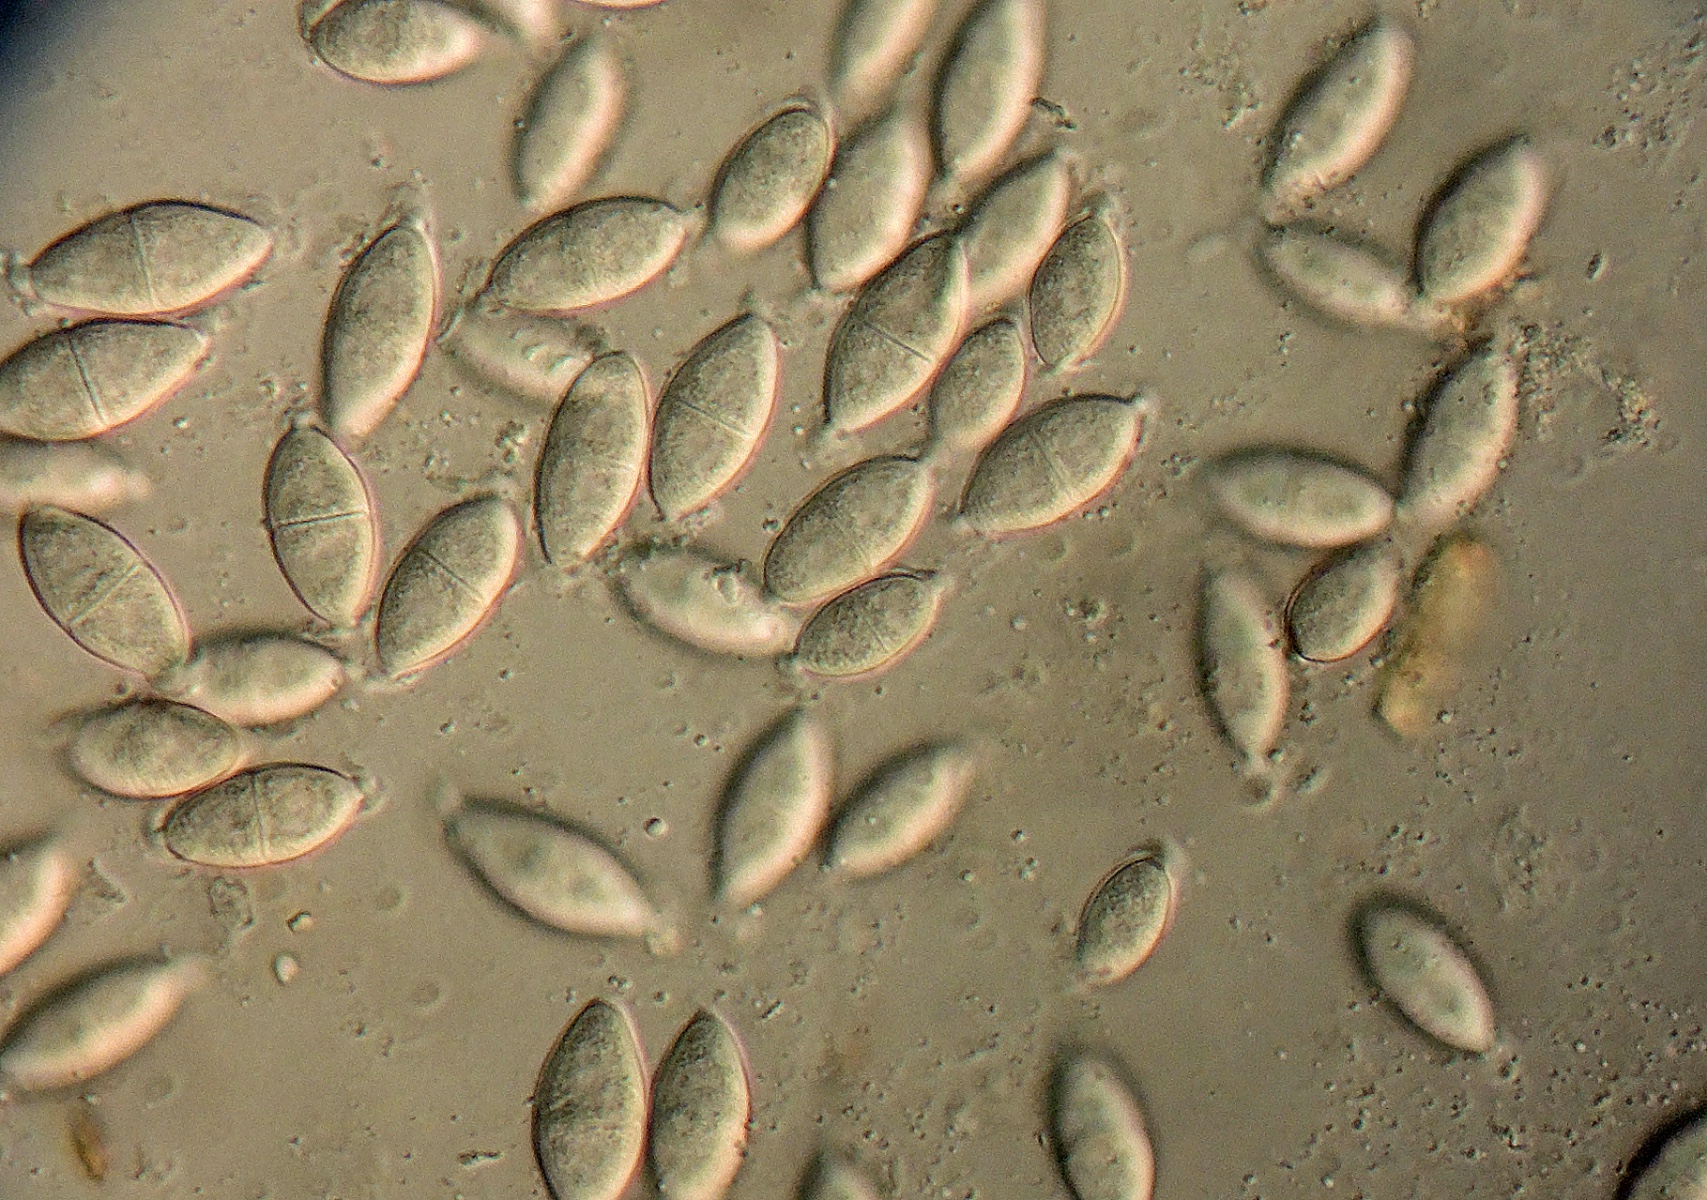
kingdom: Fungi
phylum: Ascomycota
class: Dothideomycetes
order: Pleosporales
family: Didymosphaeriaceae
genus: Montagnula
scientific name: Montagnula perforans
